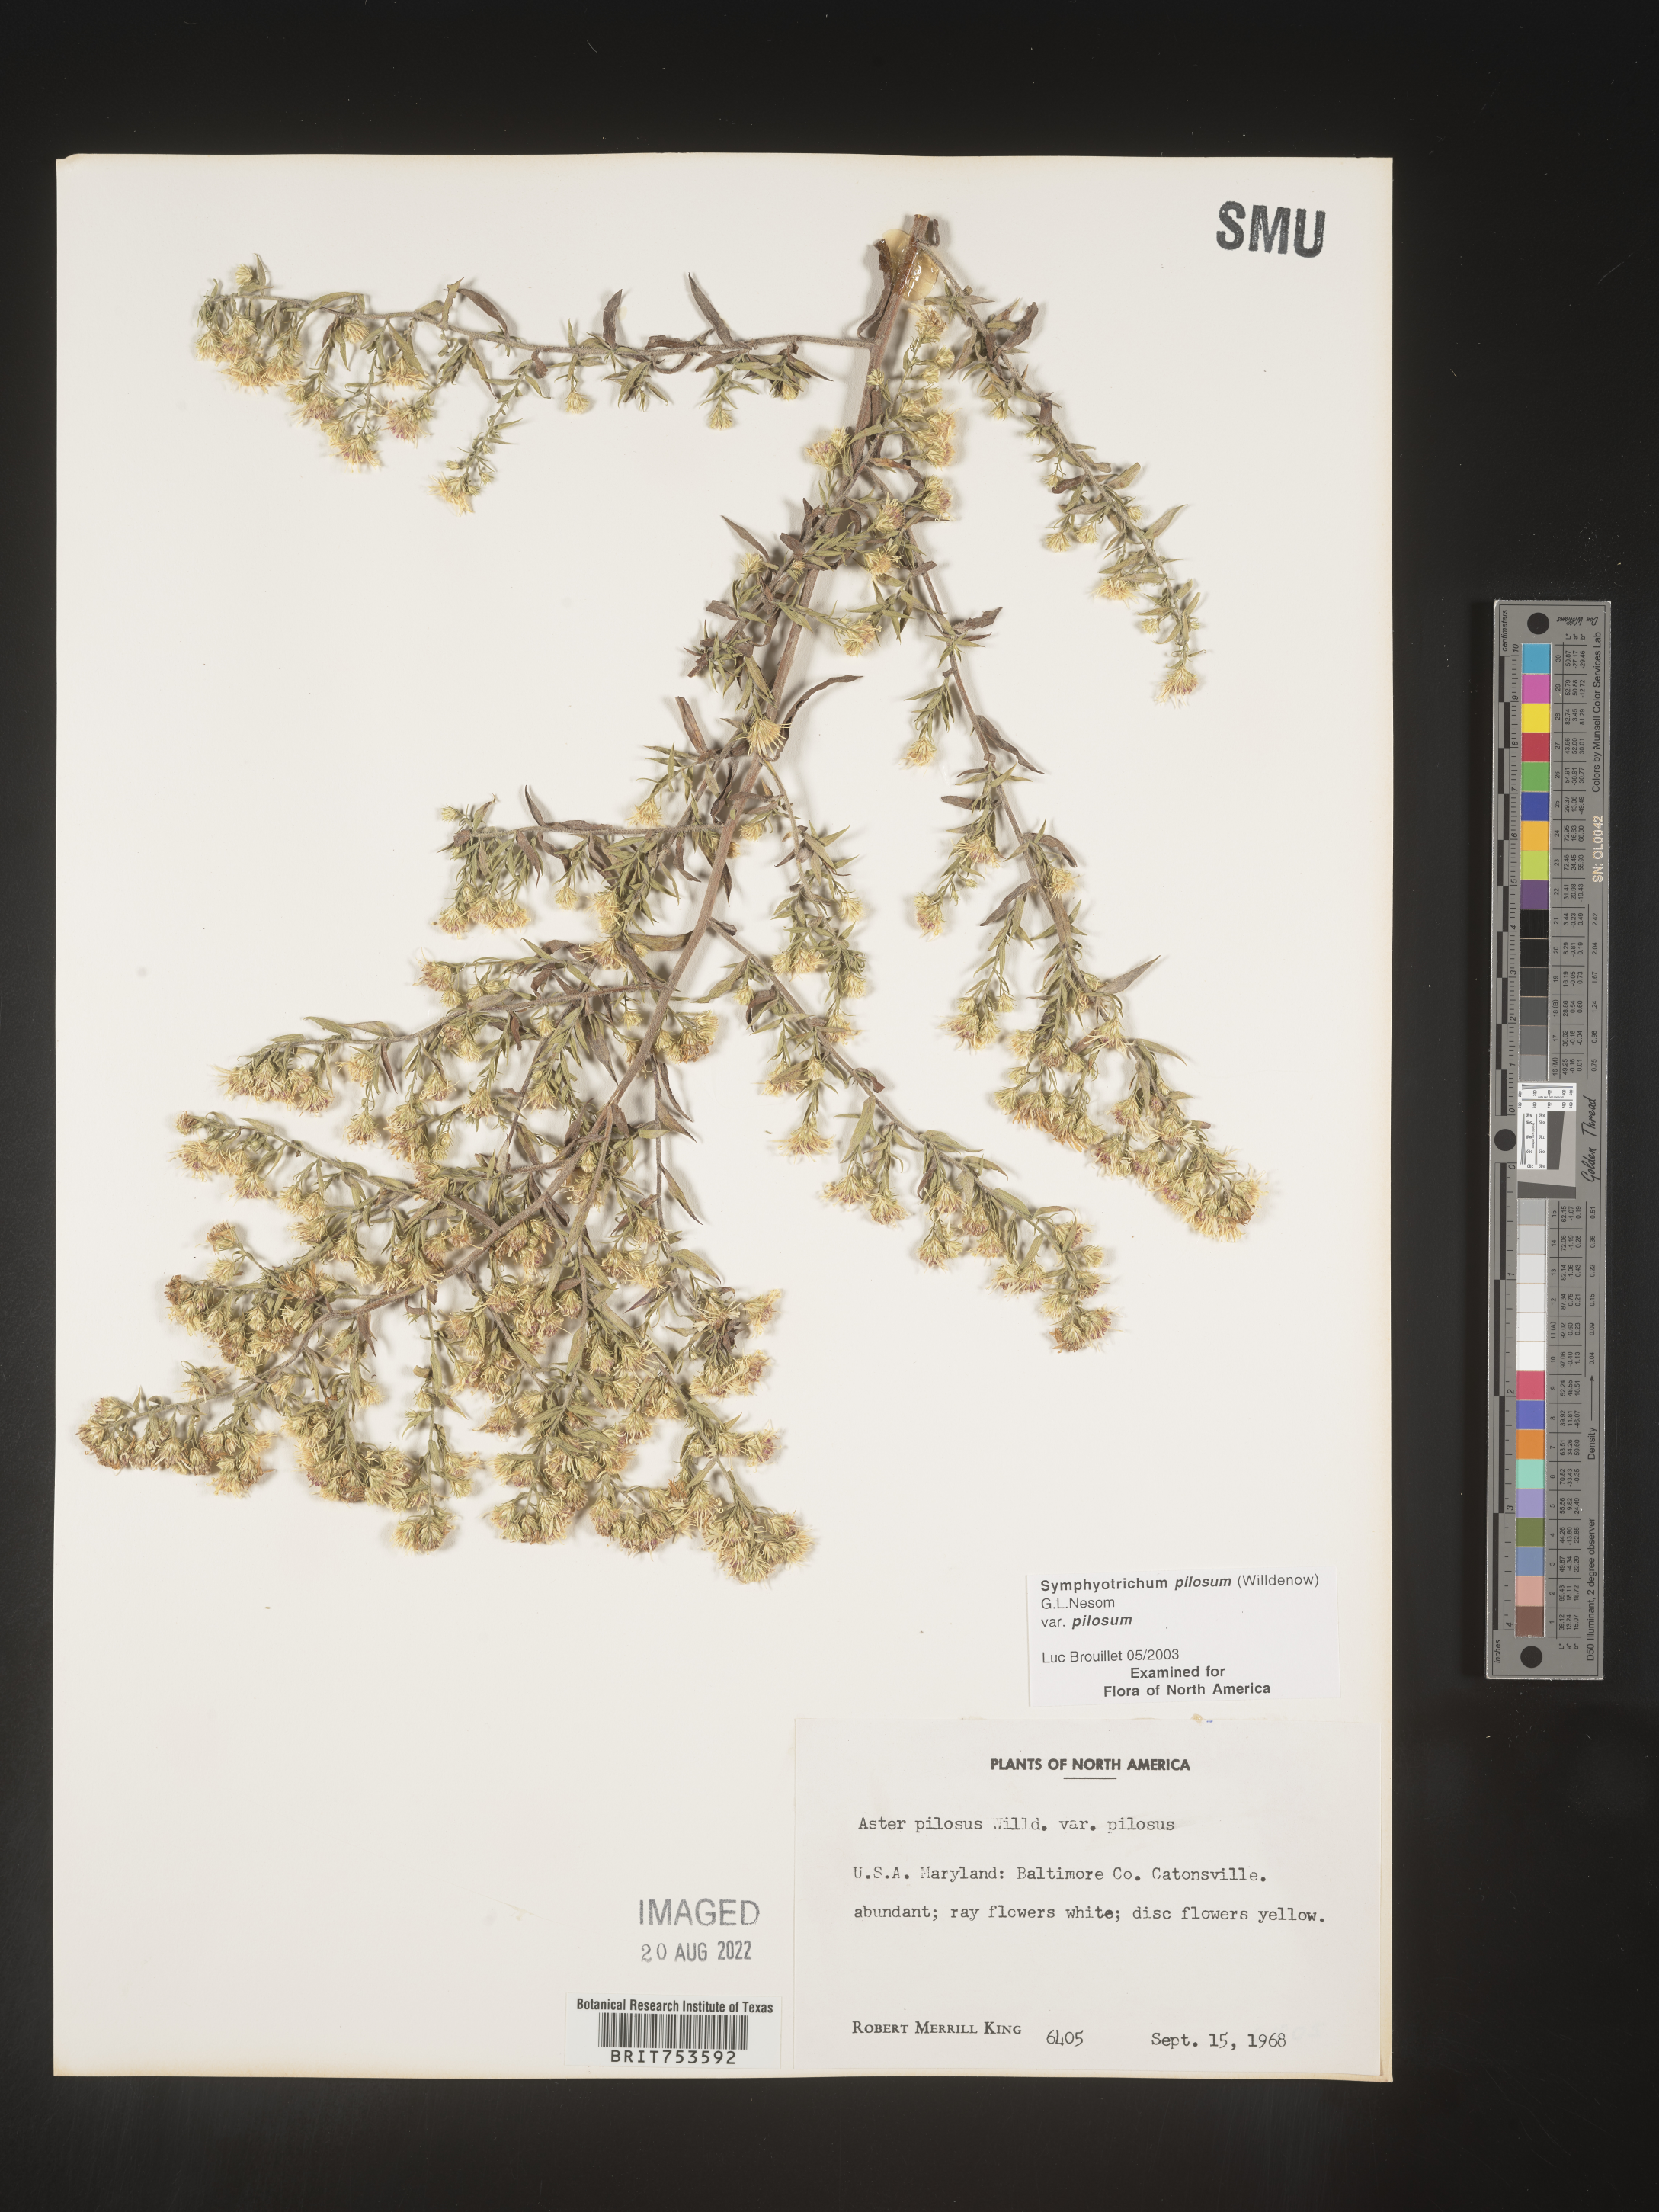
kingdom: Plantae
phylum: Tracheophyta
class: Magnoliopsida
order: Asterales
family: Asteraceae
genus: Symphyotrichum
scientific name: Symphyotrichum pilosum
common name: Awl aster
